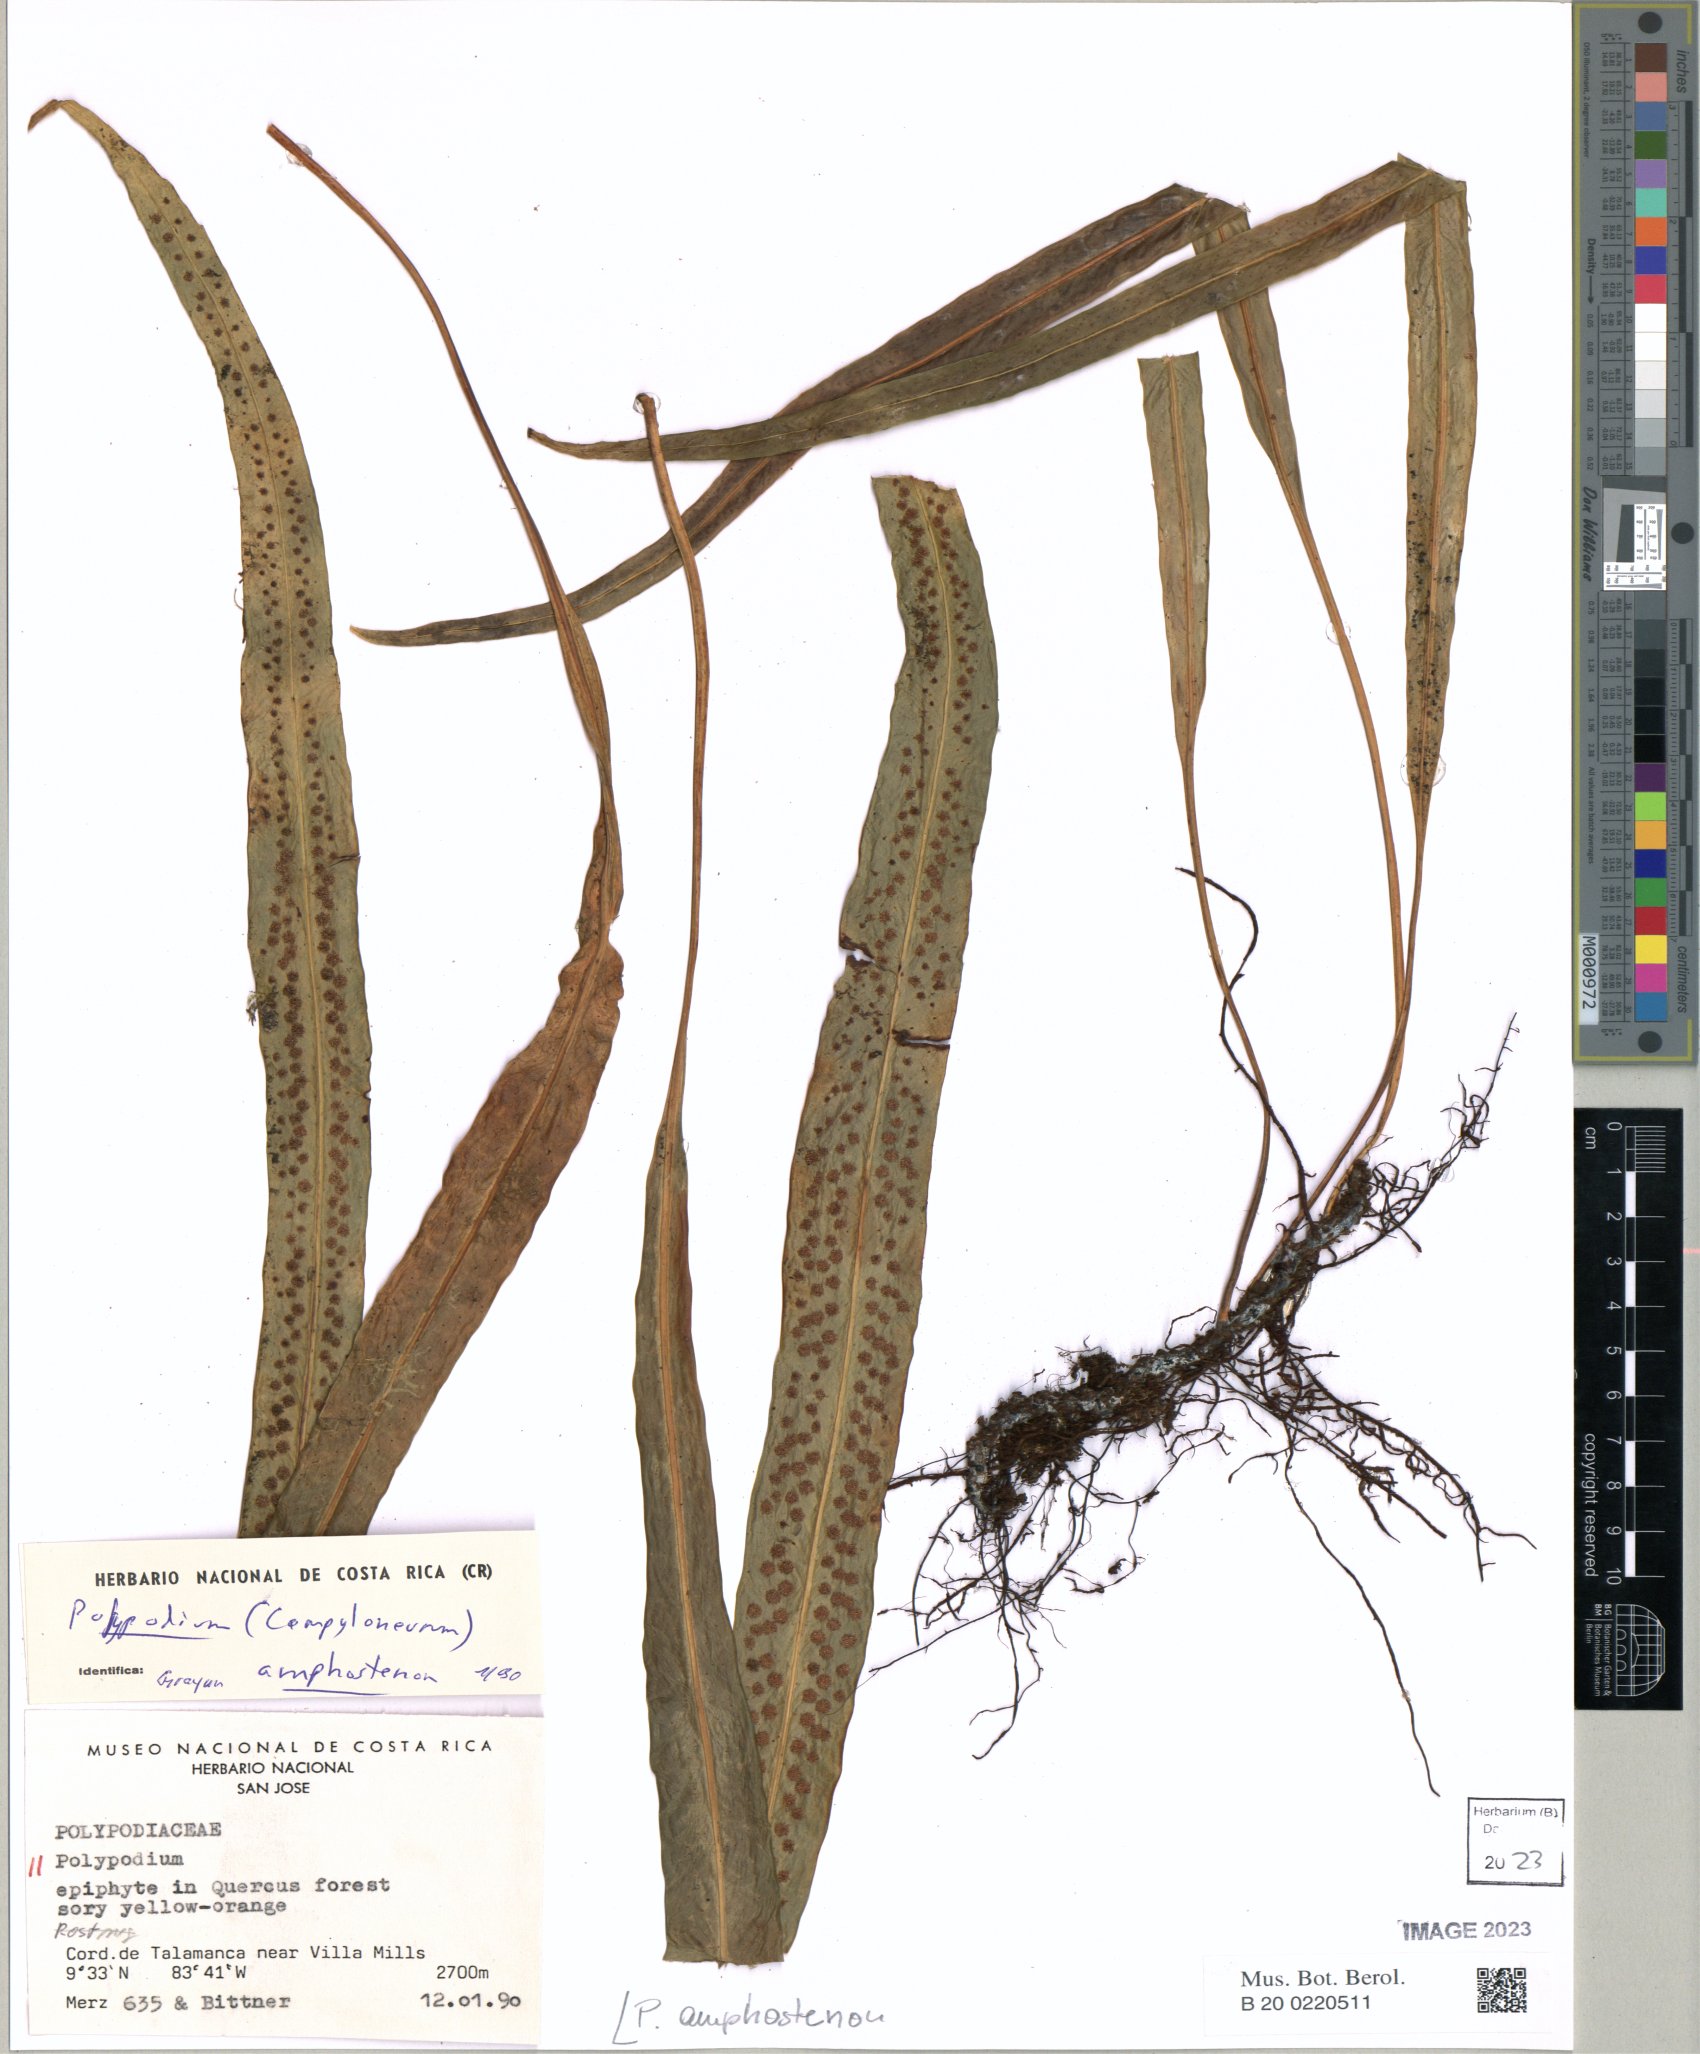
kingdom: Plantae
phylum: Tracheophyta
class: Polypodiopsida
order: Polypodiales
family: Polypodiaceae
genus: Campyloneurum
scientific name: Campyloneurum amphostenon
